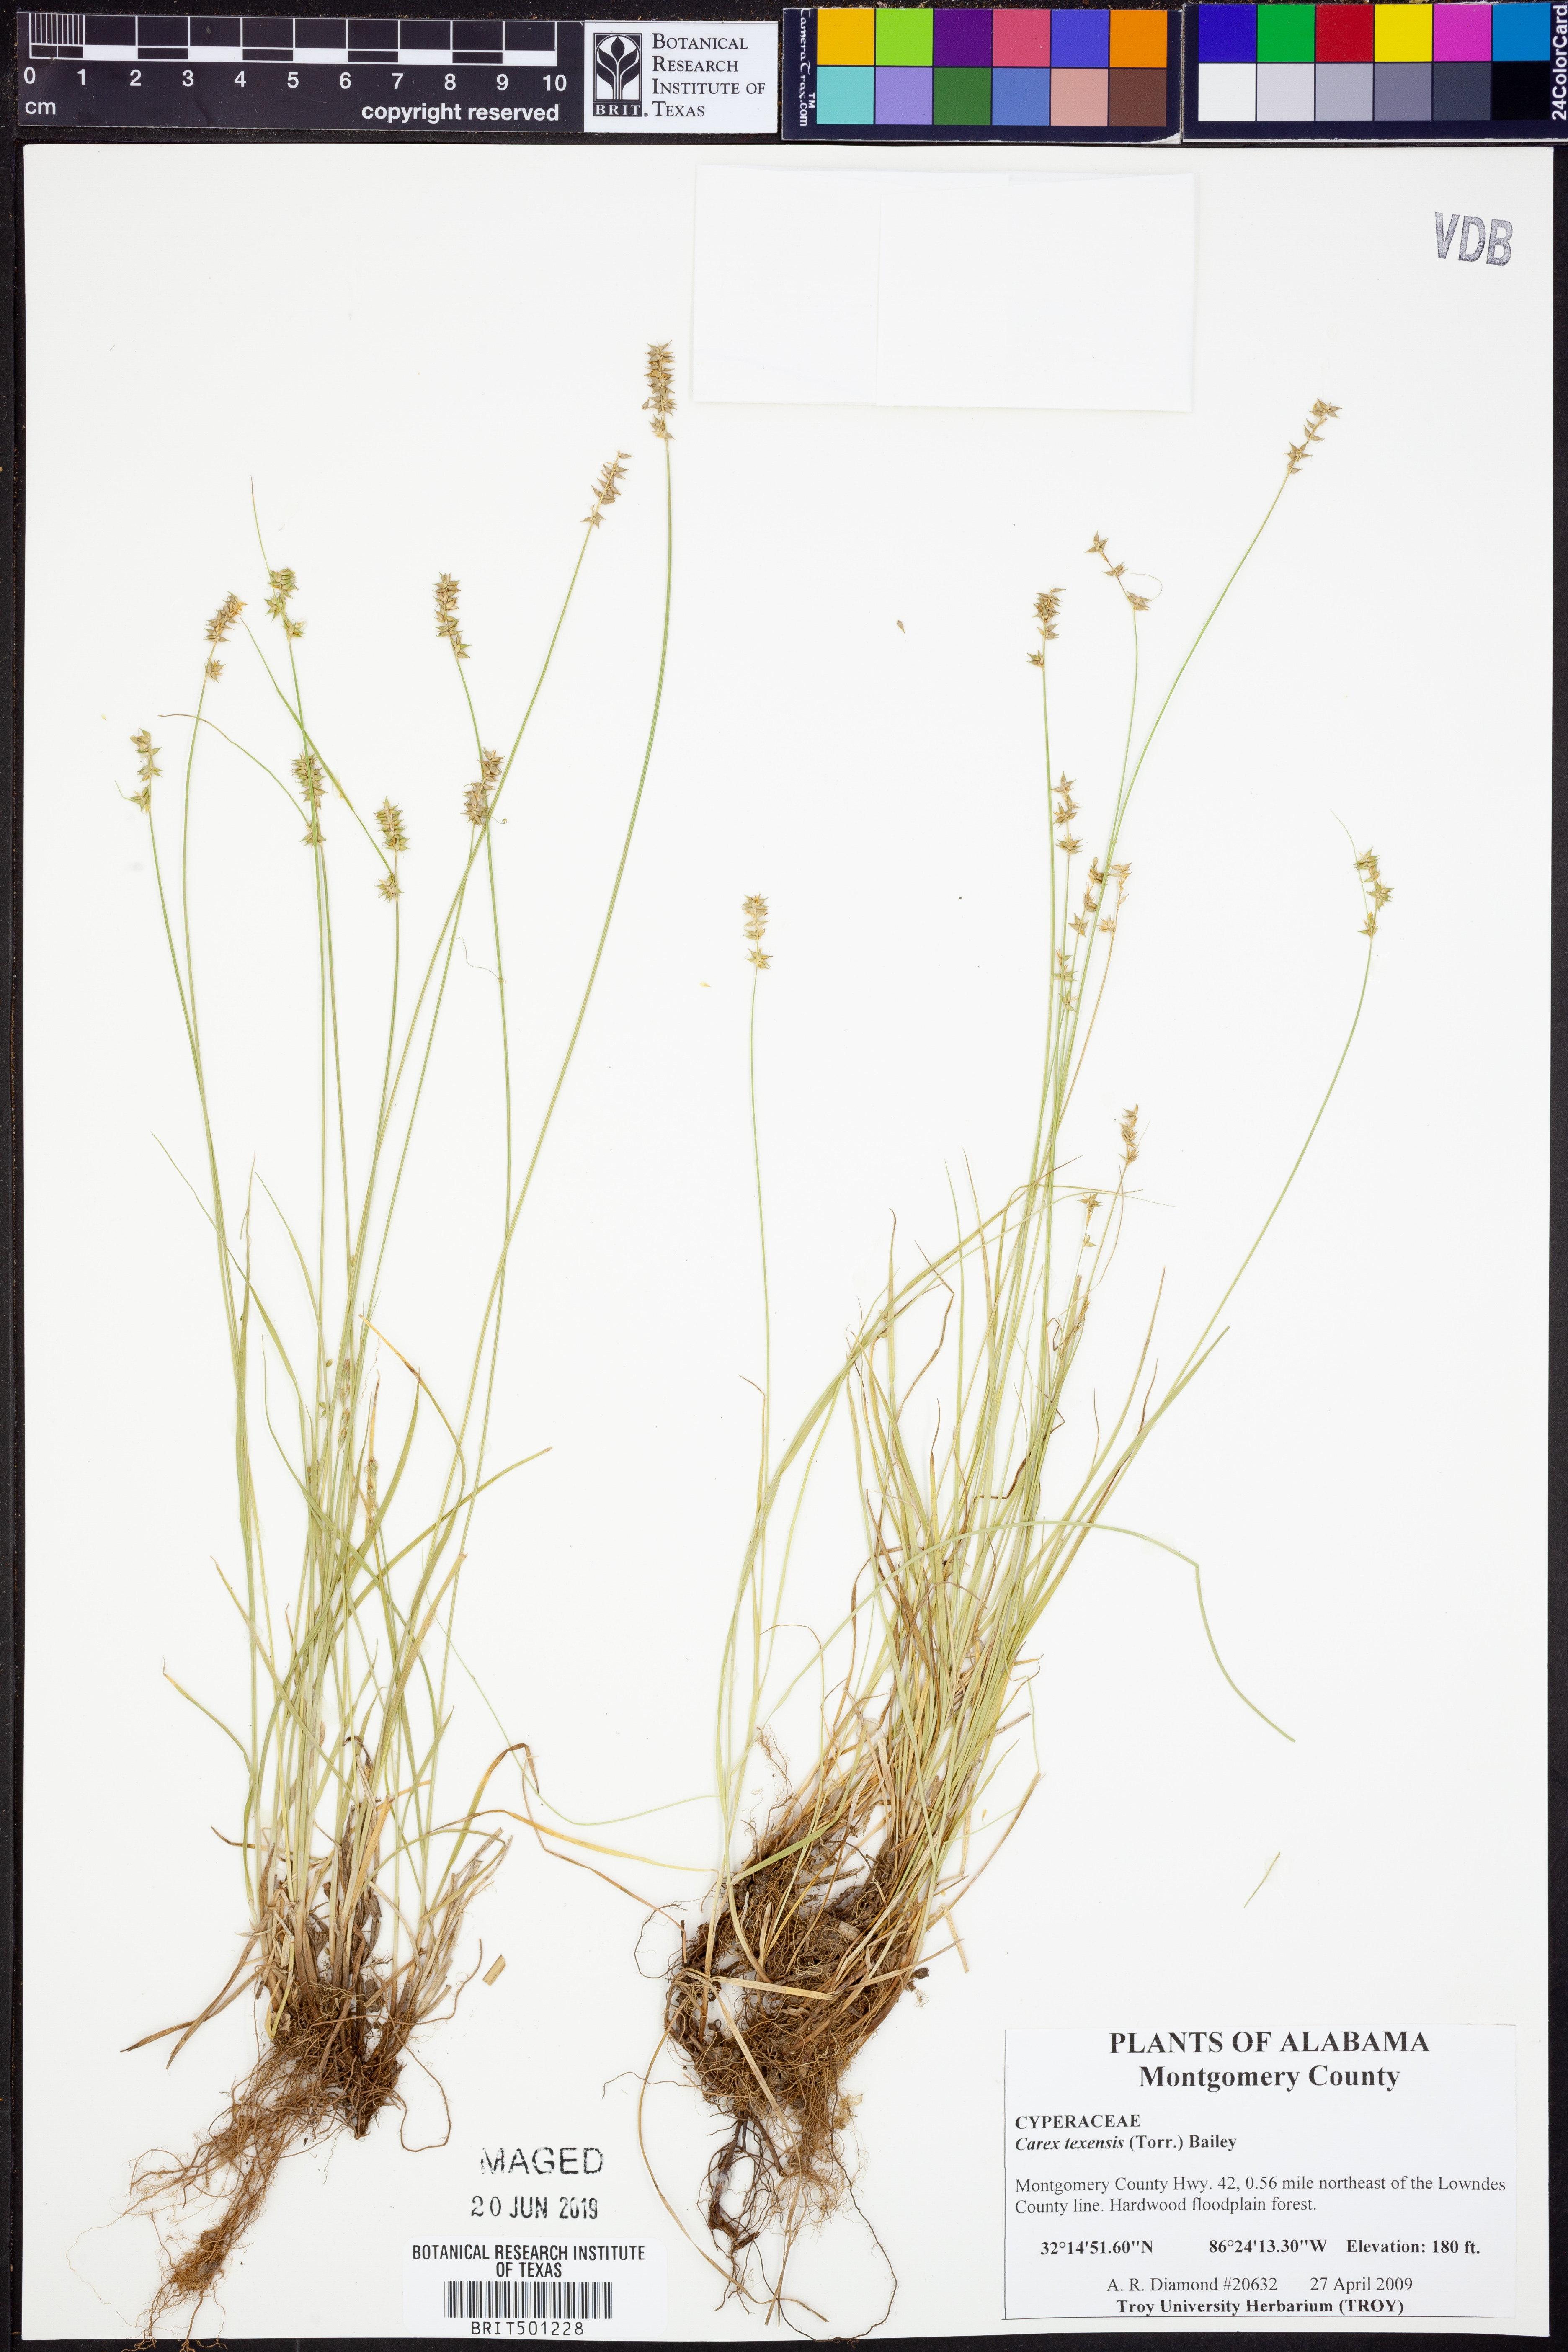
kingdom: Plantae
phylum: Tracheophyta
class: Liliopsida
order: Poales
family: Cyperaceae
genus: Carex
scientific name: Carex texensis
